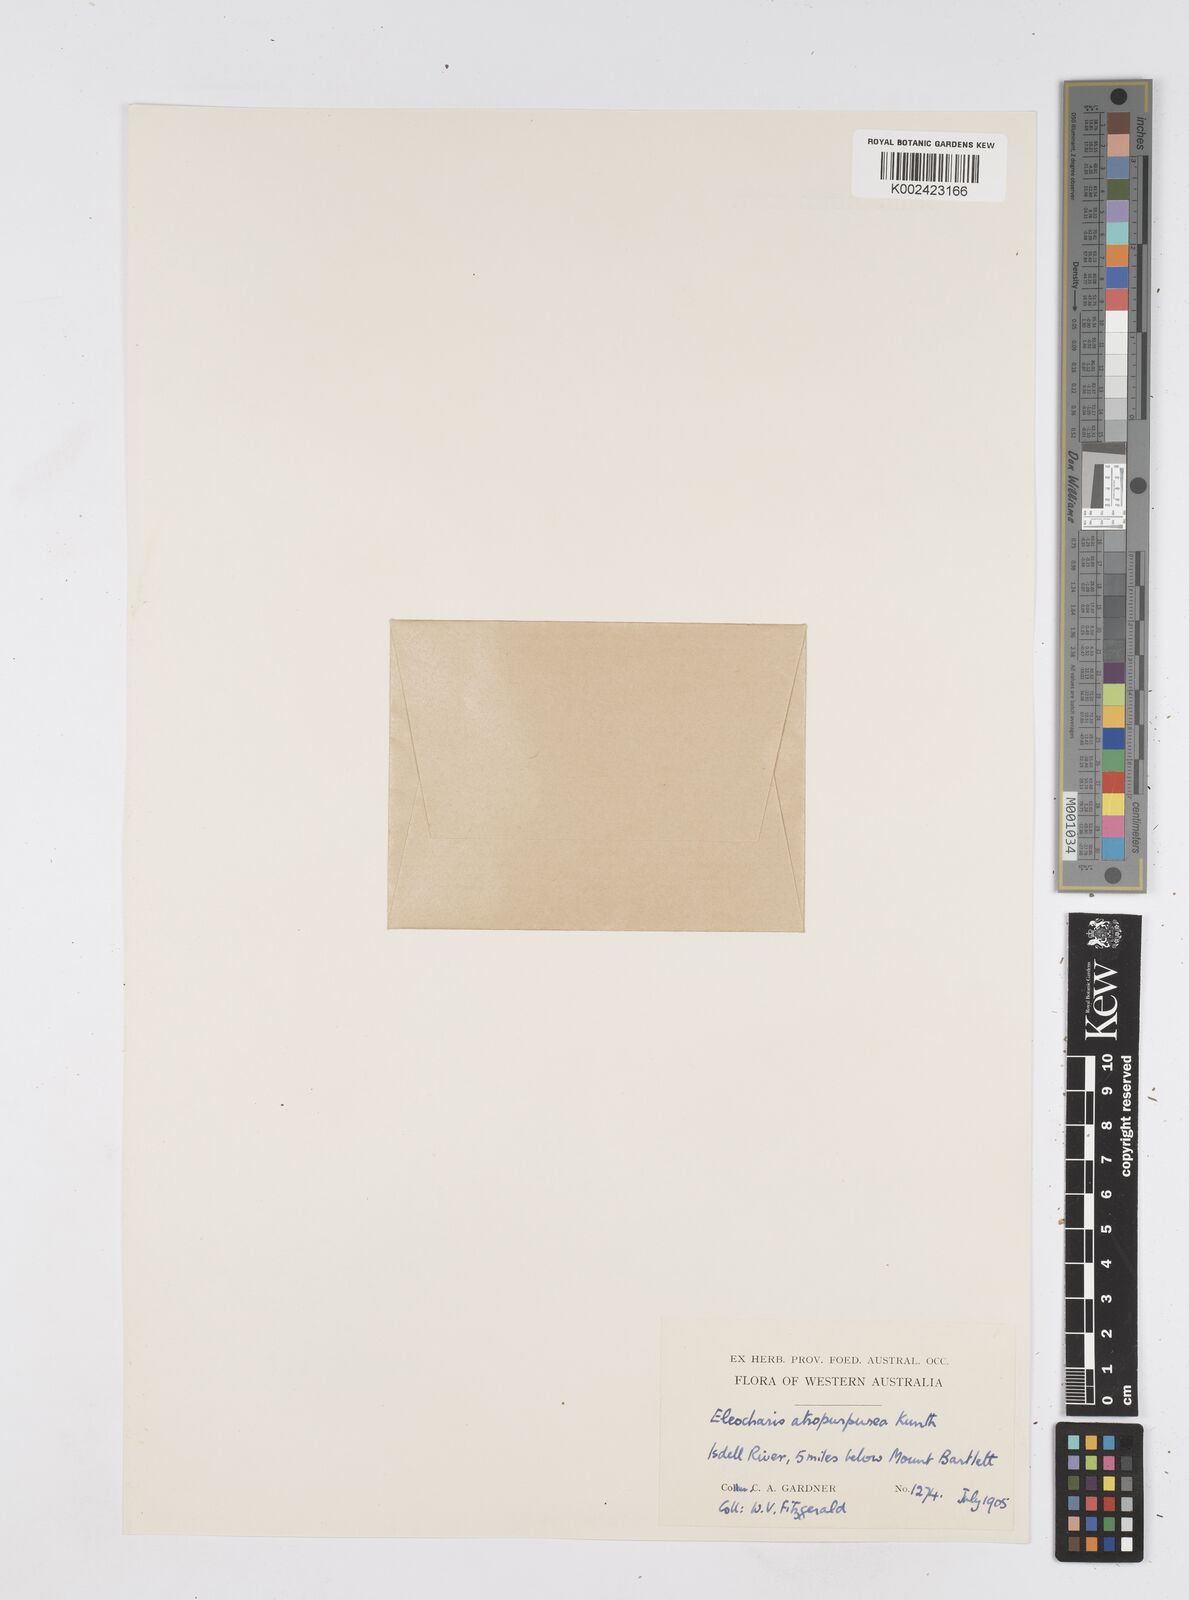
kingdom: Plantae
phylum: Tracheophyta
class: Liliopsida
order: Poales
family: Cyperaceae
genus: Eleocharis
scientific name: Eleocharis atropurpurea
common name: Purple spikerush
